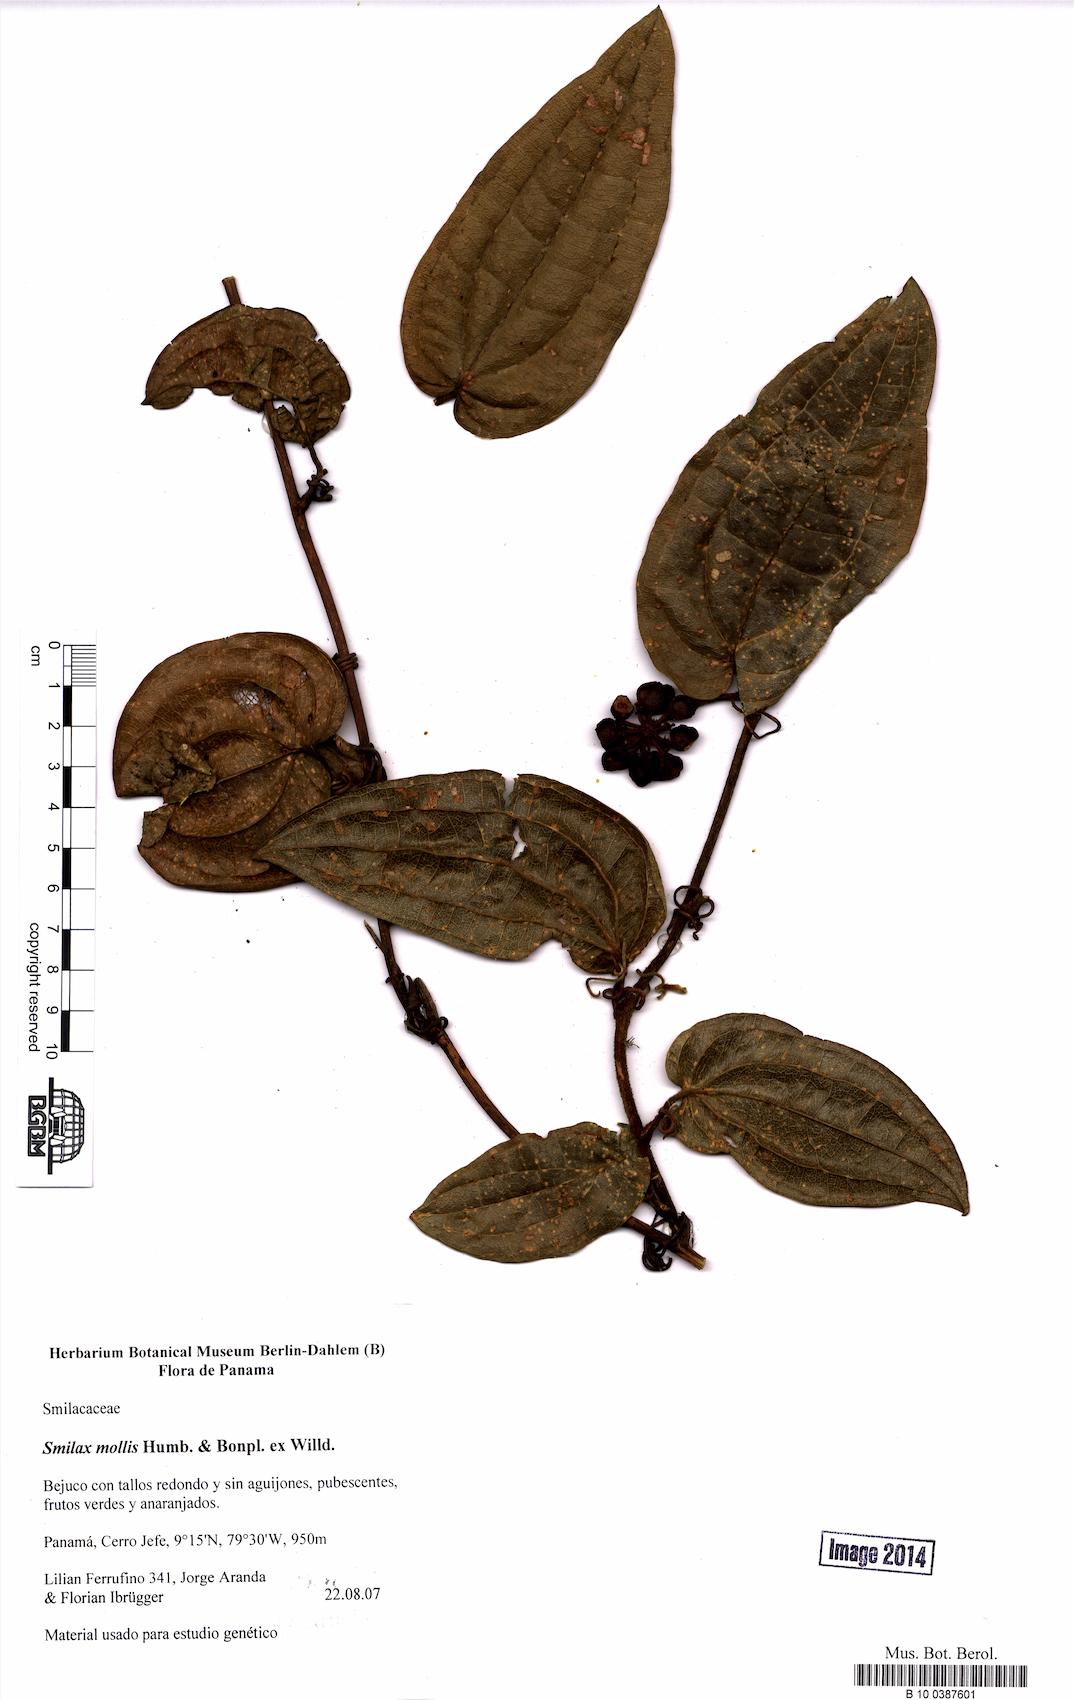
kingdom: Plantae
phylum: Tracheophyta
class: Liliopsida
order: Liliales
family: Smilacaceae
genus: Smilax
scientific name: Smilax mollis
